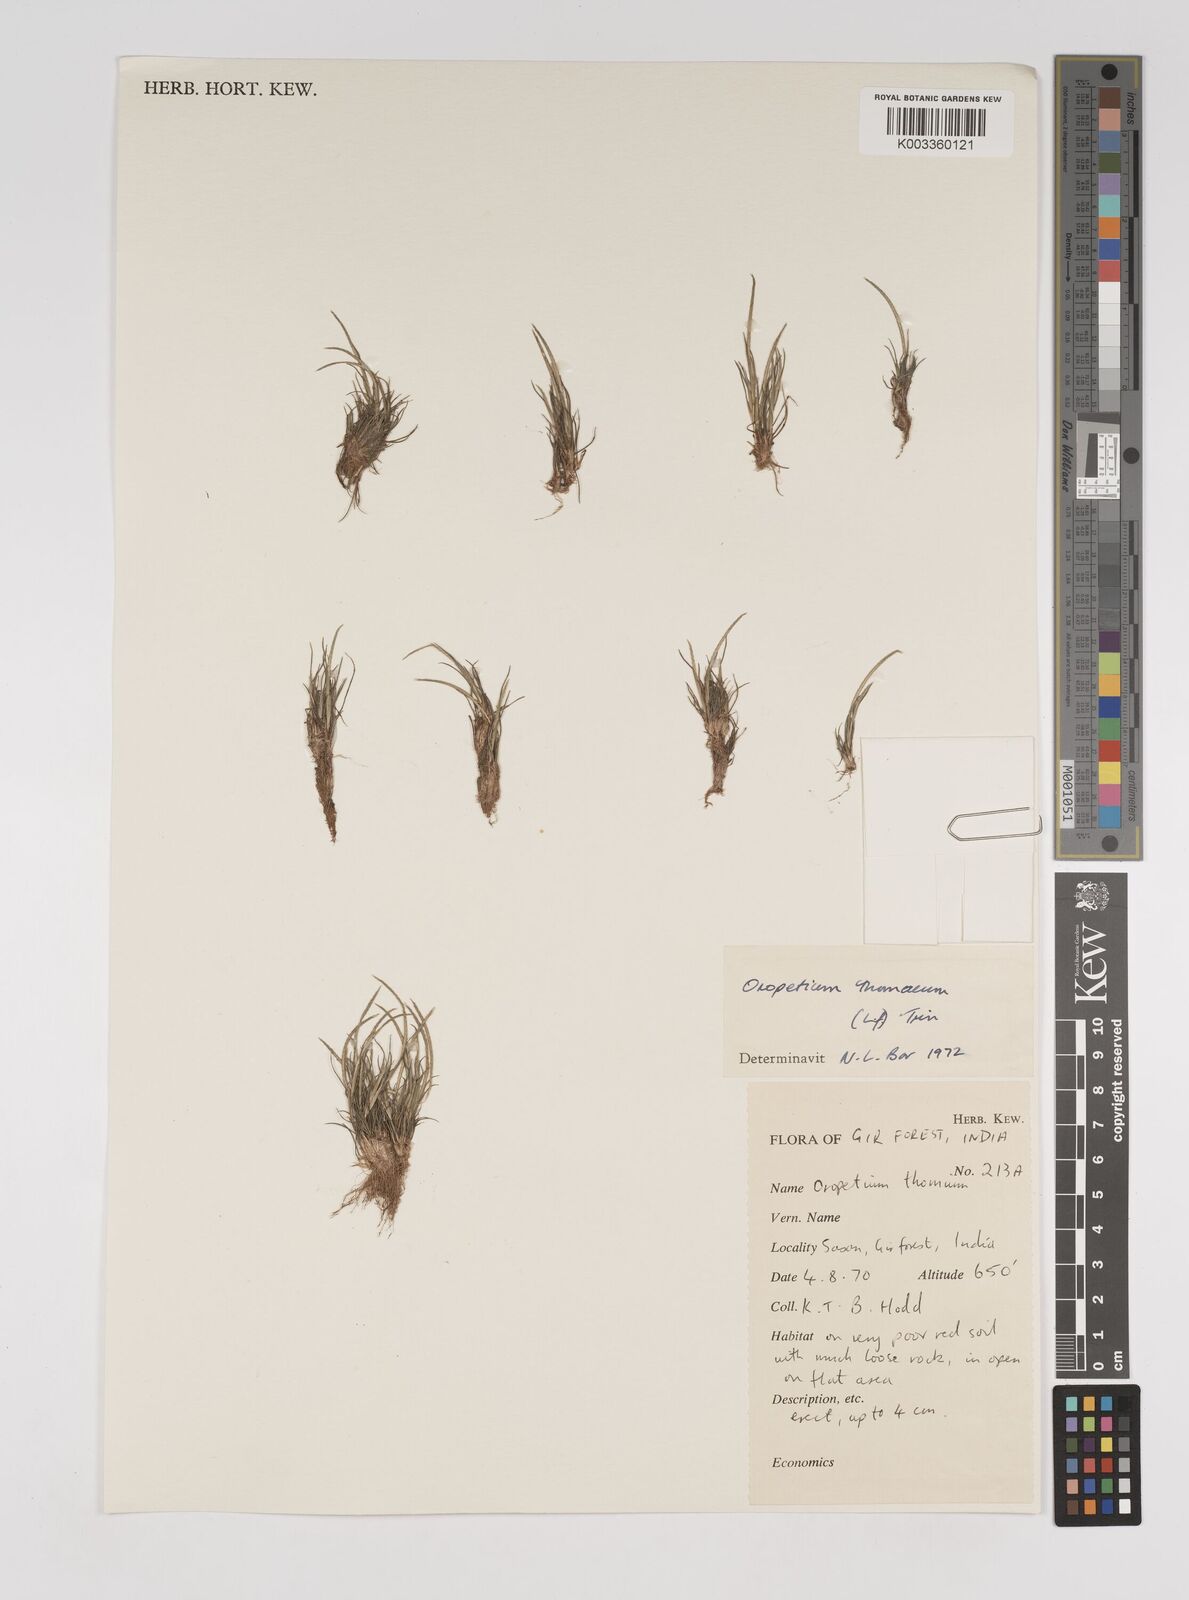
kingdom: Plantae
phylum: Tracheophyta
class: Liliopsida
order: Poales
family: Poaceae
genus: Oropetium
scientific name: Oropetium thomaeum
